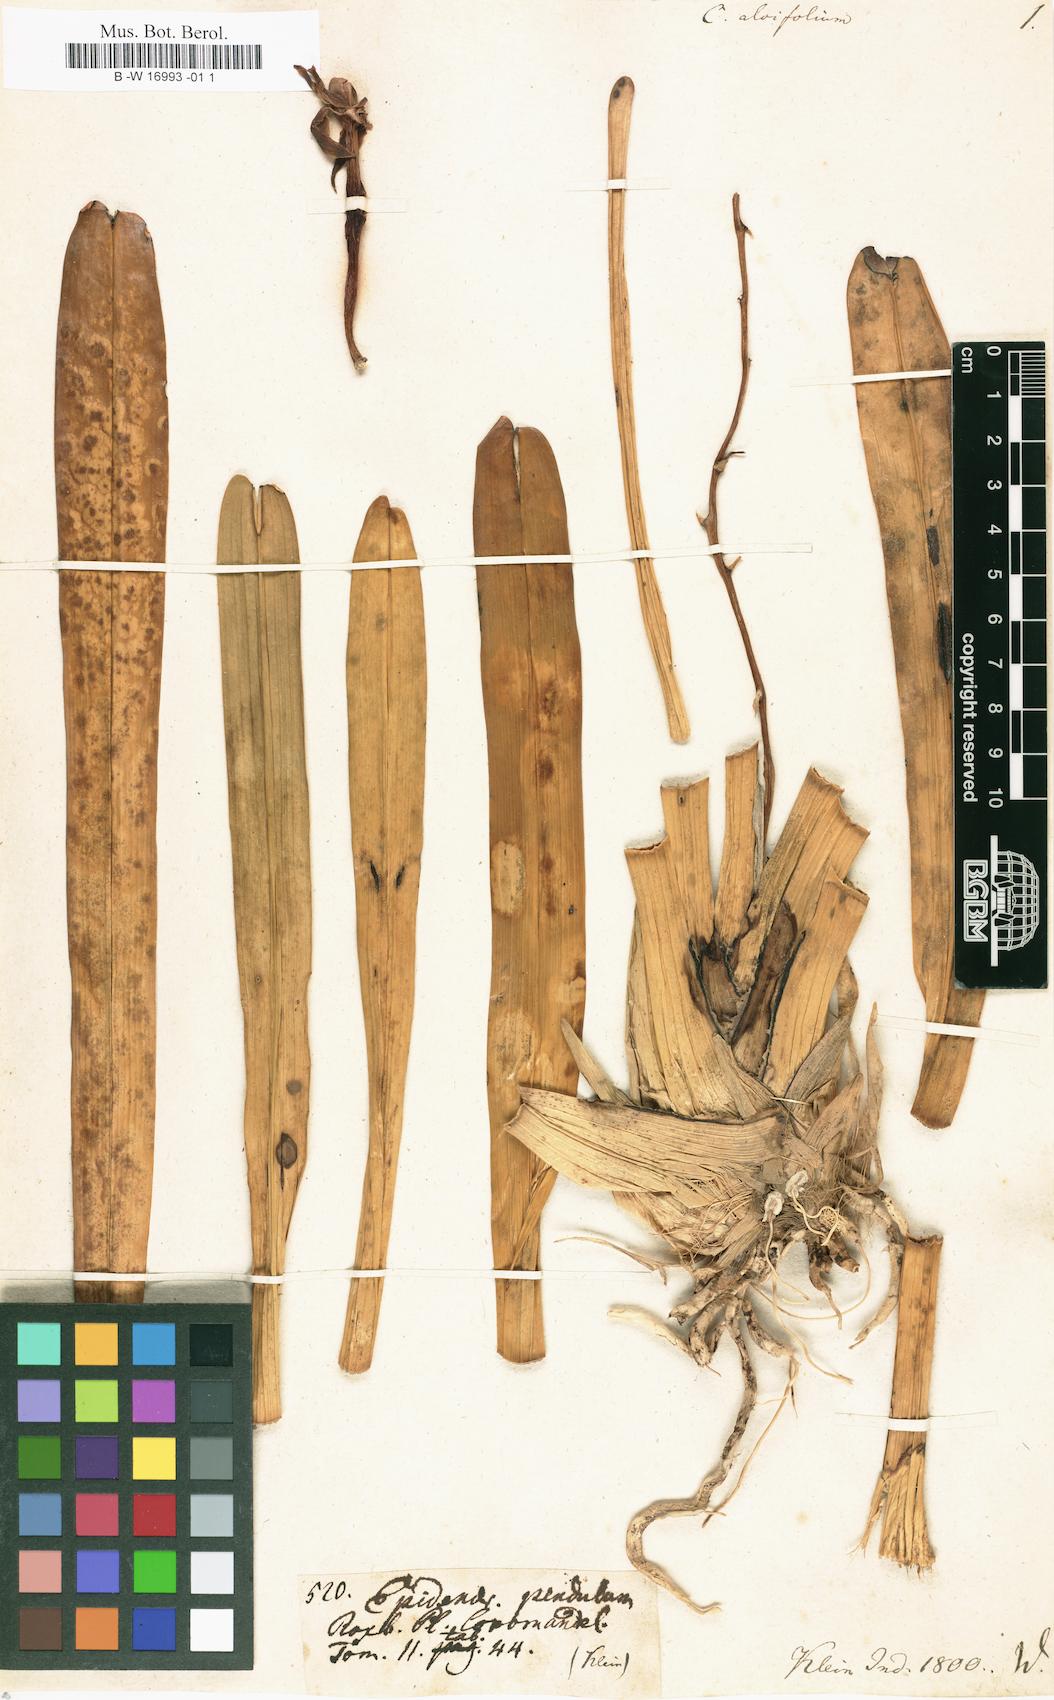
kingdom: Plantae
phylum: Tracheophyta
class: Liliopsida
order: Asparagales
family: Orchidaceae
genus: Cymbidium
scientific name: Cymbidium aloifolium
